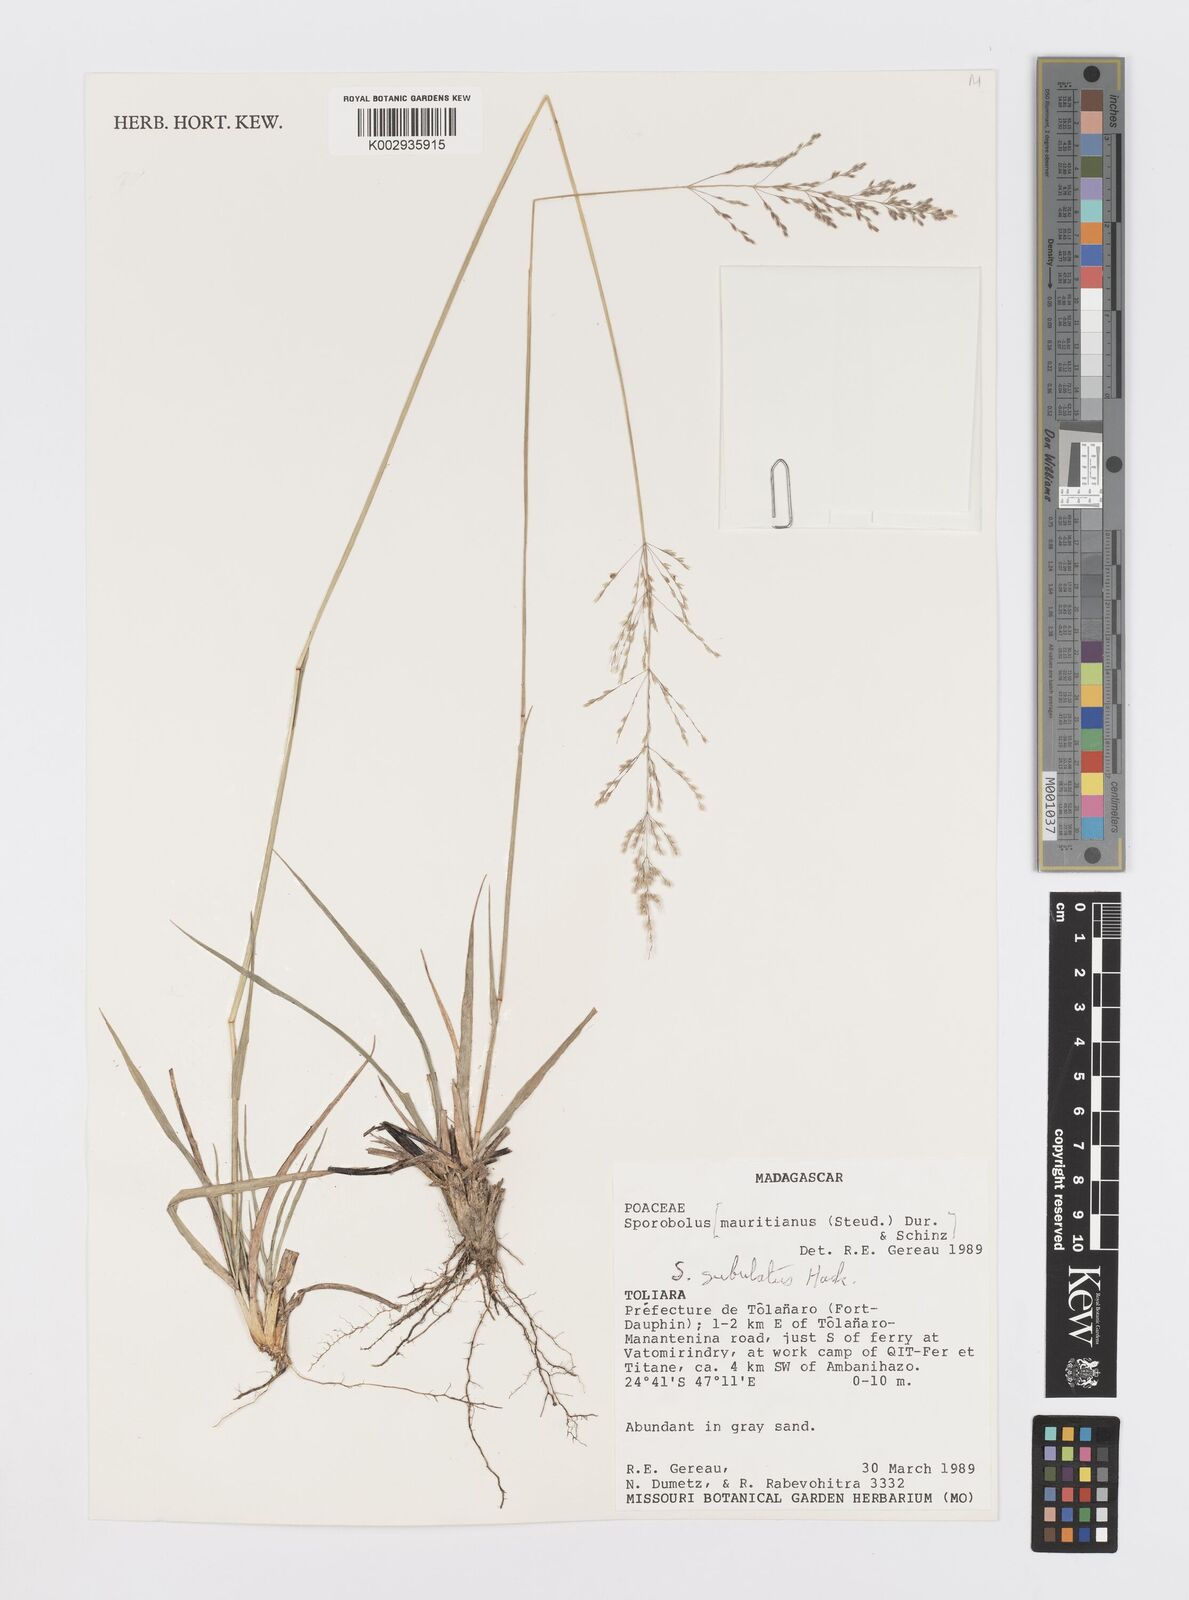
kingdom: Plantae
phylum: Tracheophyta
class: Liliopsida
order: Poales
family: Poaceae
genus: Sporobolus
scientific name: Sporobolus subulatus
